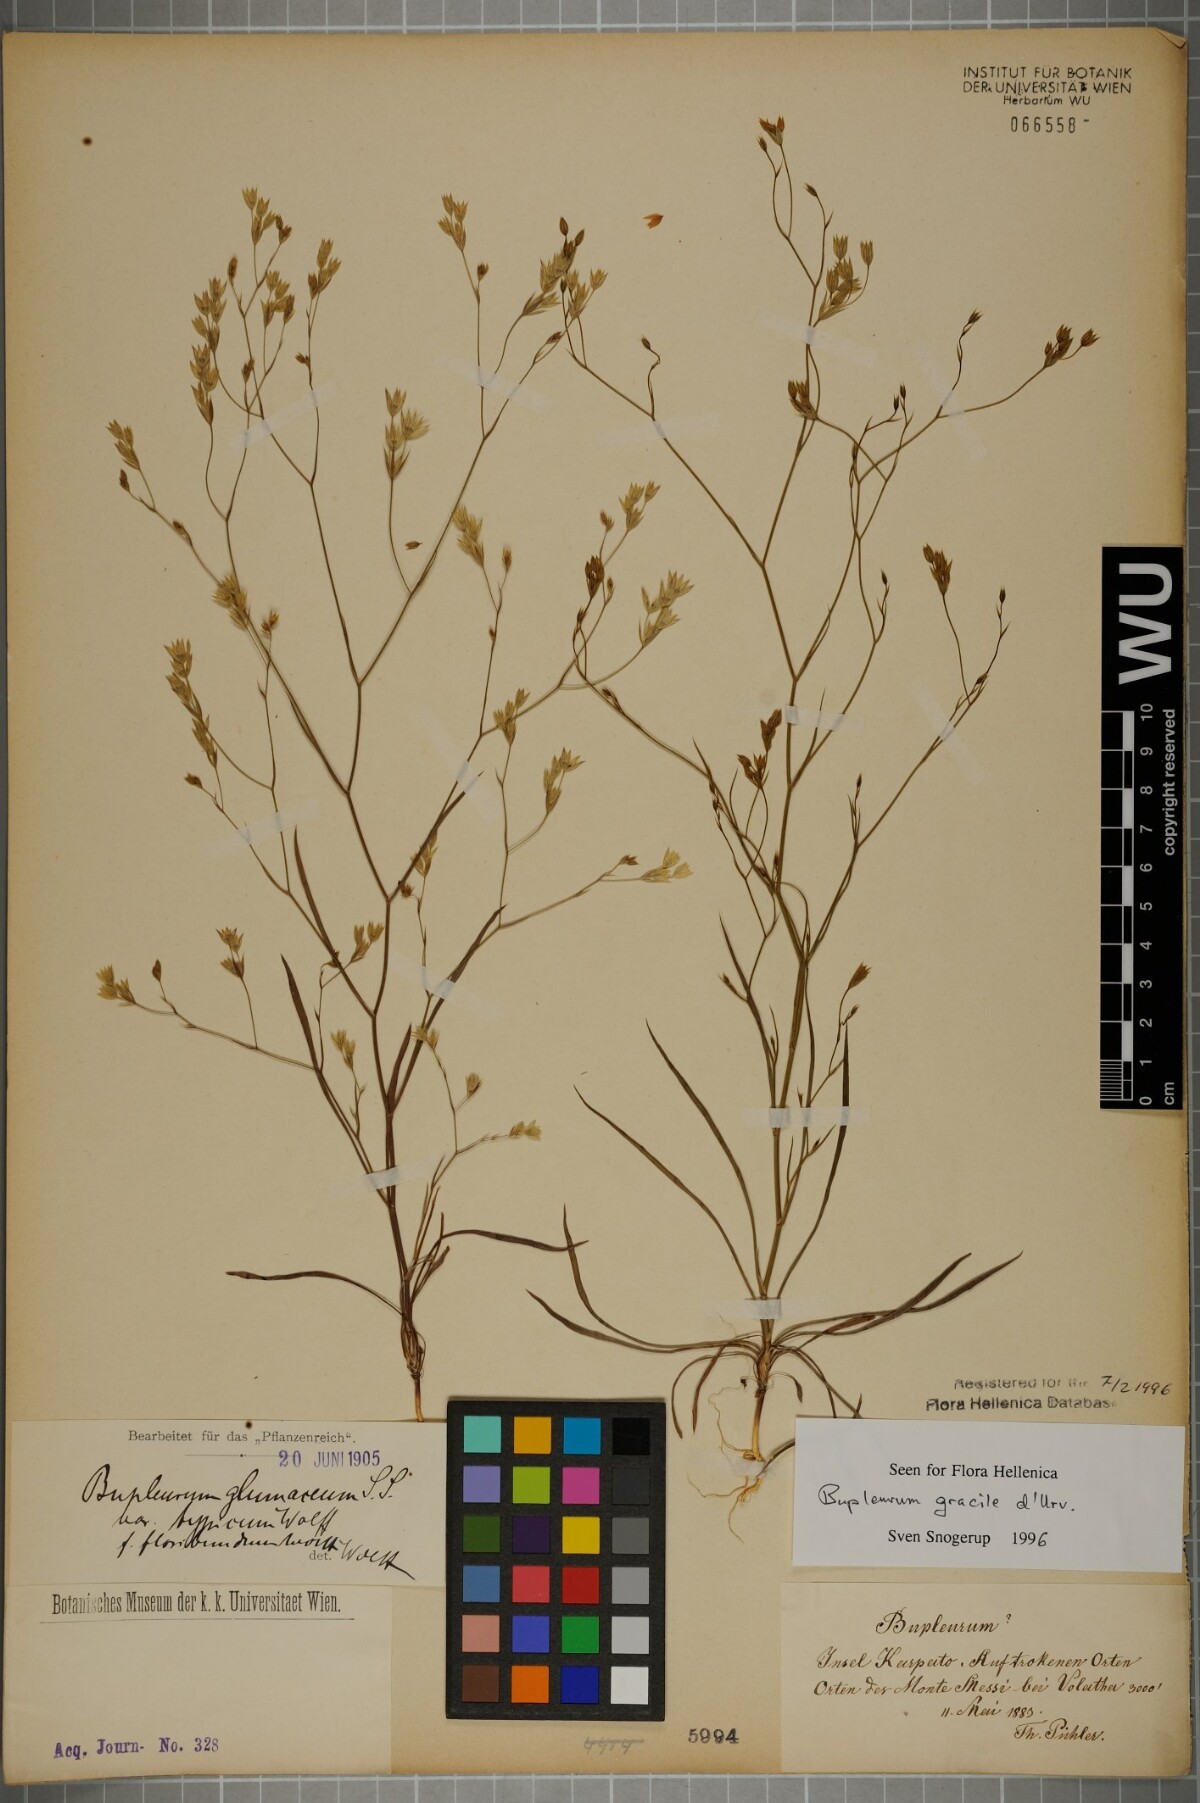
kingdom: Plantae
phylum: Tracheophyta
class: Magnoliopsida
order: Apiales
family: Apiaceae
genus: Bupleurum
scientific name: Bupleurum gracile
